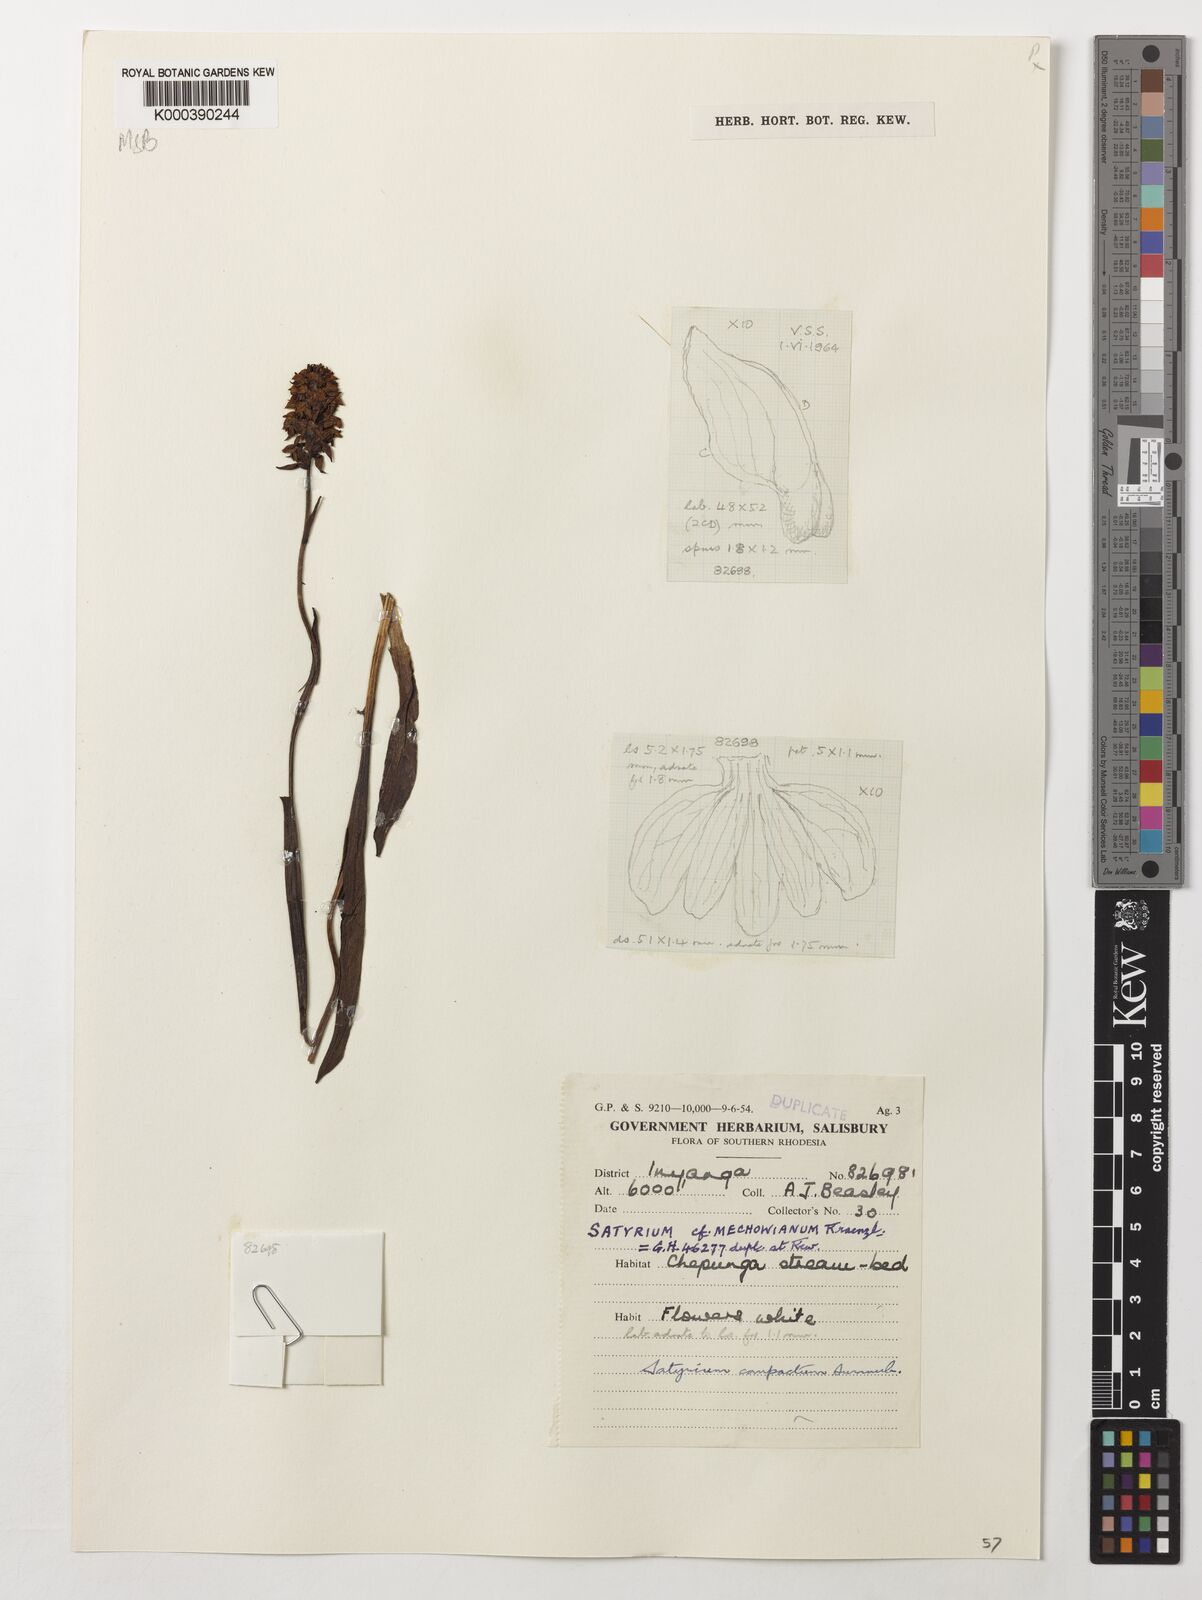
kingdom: Plantae
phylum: Tracheophyta
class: Liliopsida
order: Asparagales
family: Orchidaceae
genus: Satyrium
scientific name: Satyrium compactum
